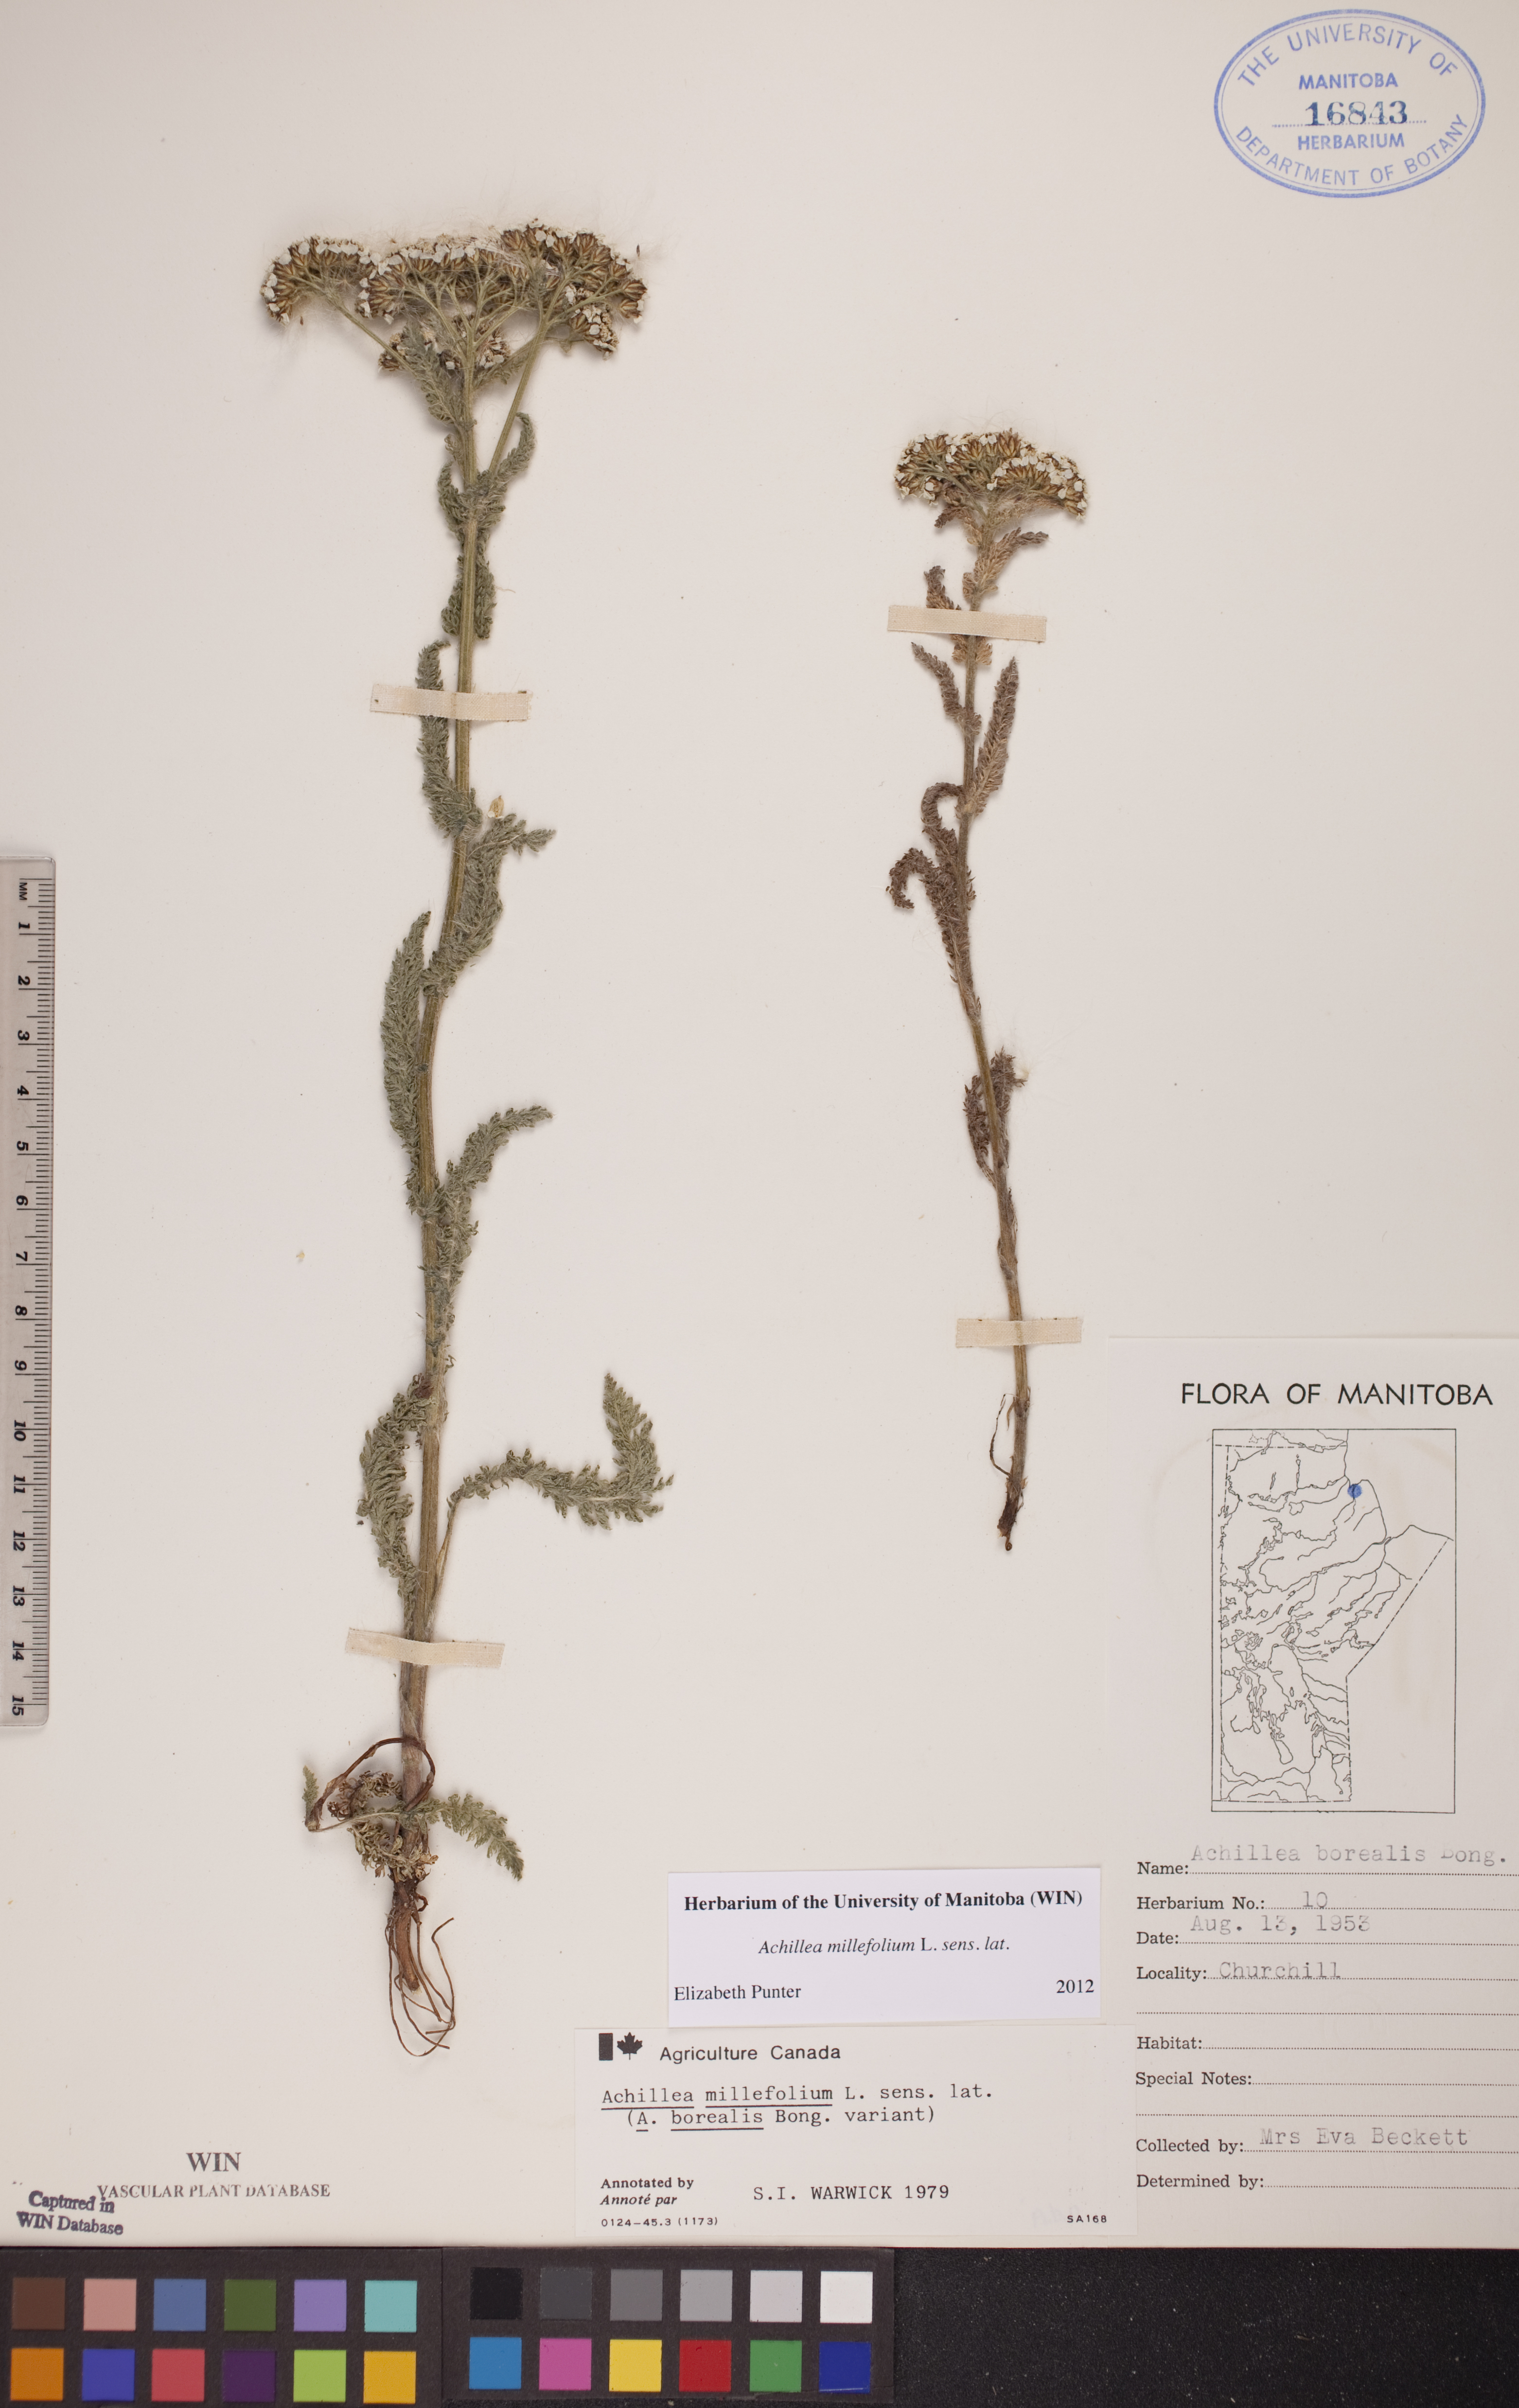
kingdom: Plantae
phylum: Tracheophyta
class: Magnoliopsida
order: Asterales
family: Asteraceae
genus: Achillea
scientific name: Achillea millefolium
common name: Yarrow
